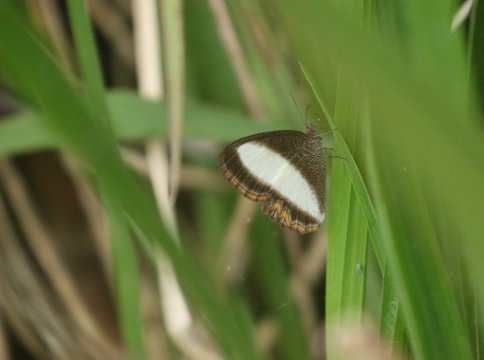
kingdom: Animalia
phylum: Arthropoda
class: Insecta
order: Lepidoptera
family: Nymphalidae
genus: Oressinoma
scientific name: Oressinoma typhla
